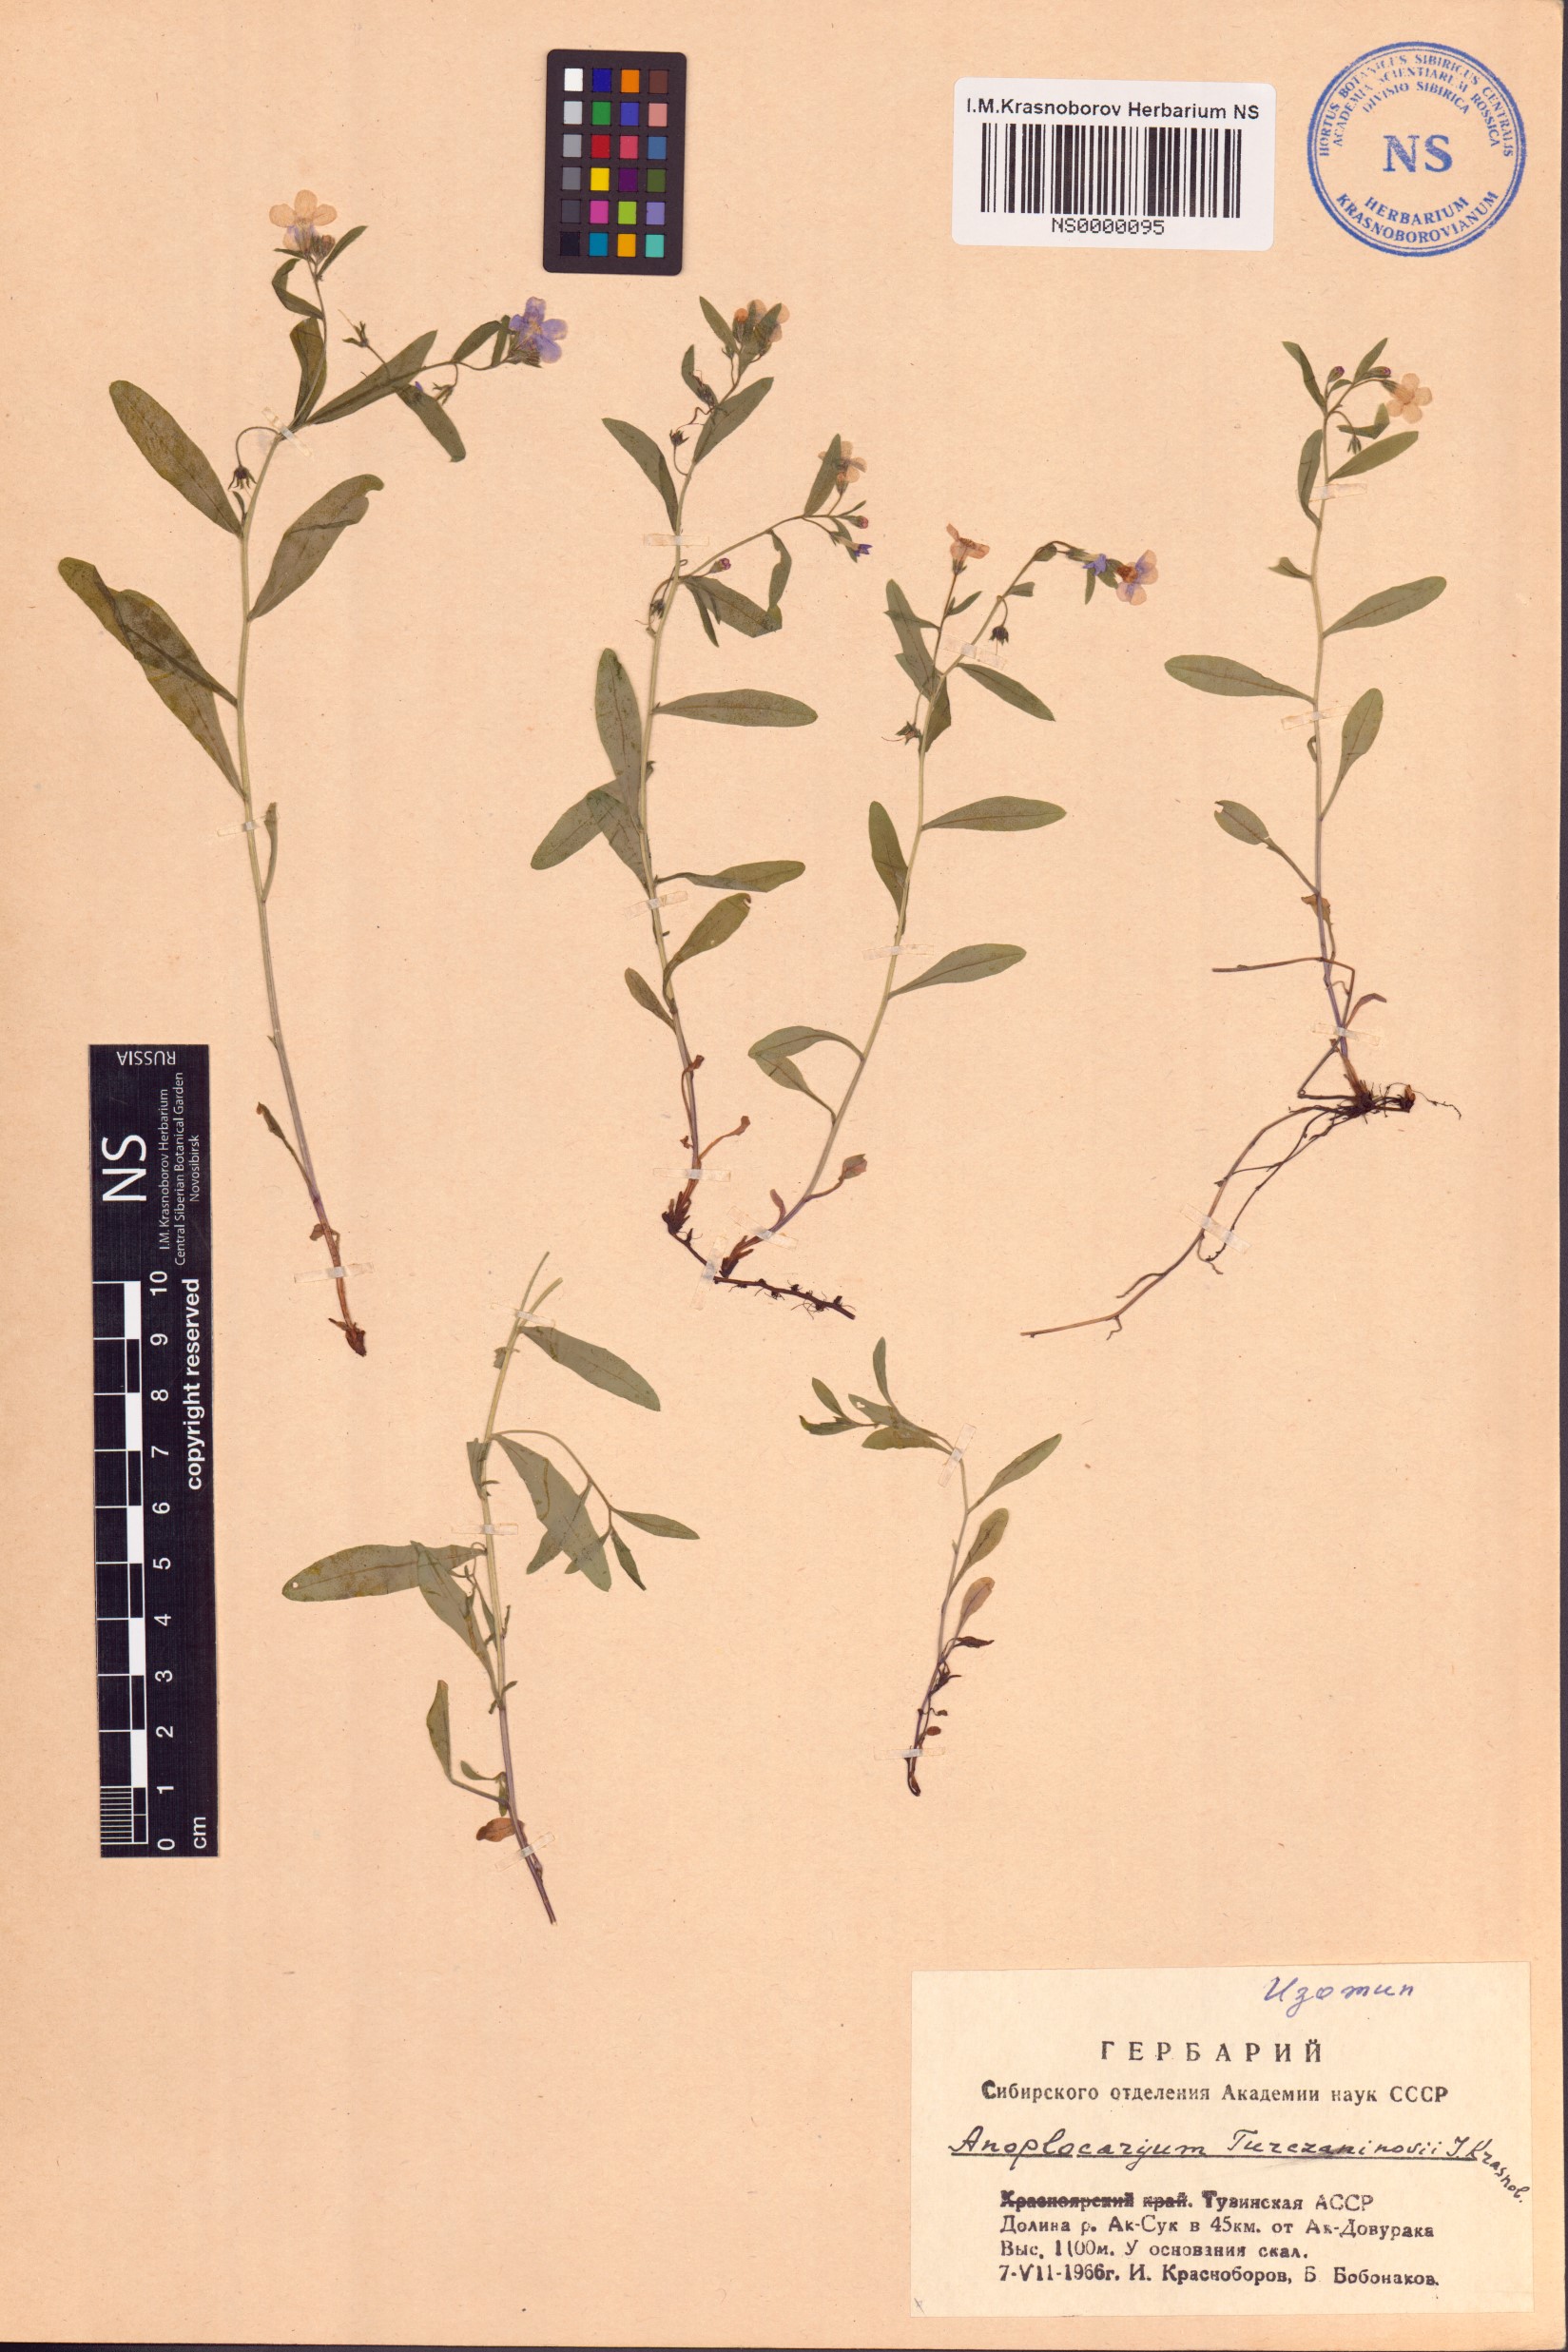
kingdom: Plantae
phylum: Tracheophyta
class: Magnoliopsida
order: Boraginales
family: Boraginaceae
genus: Anoplocaryum
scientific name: Anoplocaryum turczaninovii
